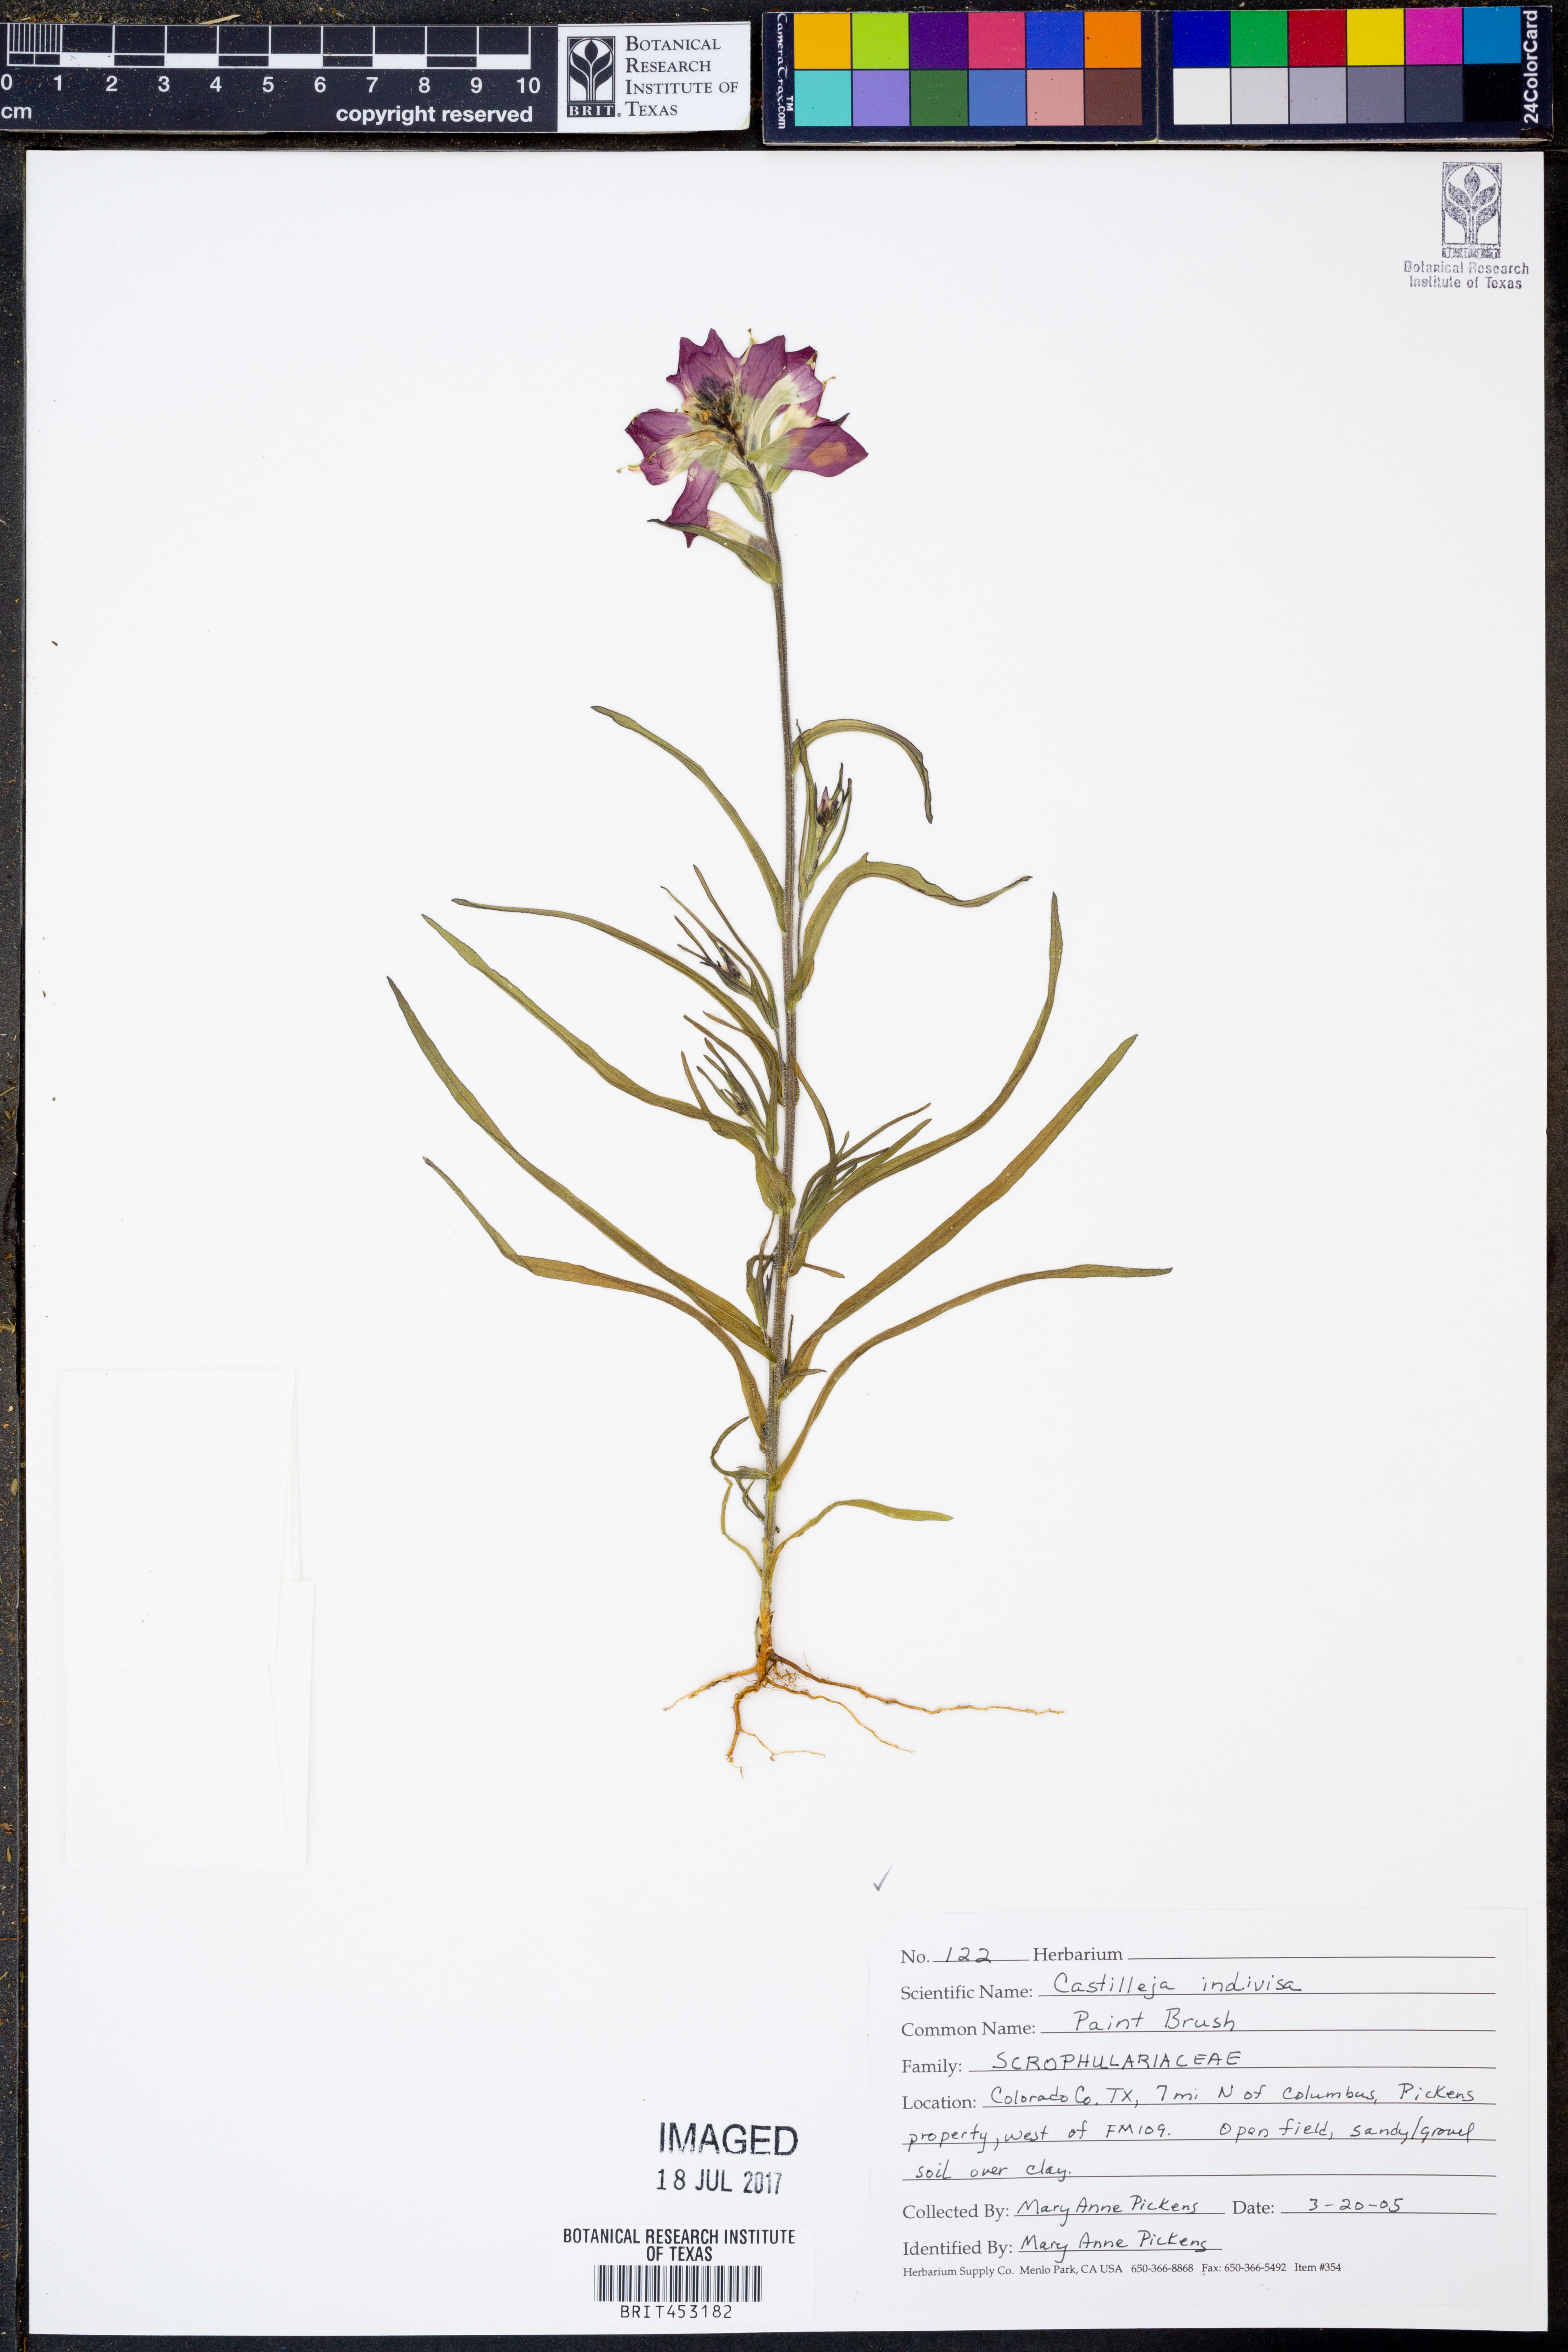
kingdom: Plantae
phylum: Tracheophyta
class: Magnoliopsida
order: Lamiales
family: Orobanchaceae
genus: Castilleja
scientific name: Castilleja indivisa
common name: Texas paintbrush
